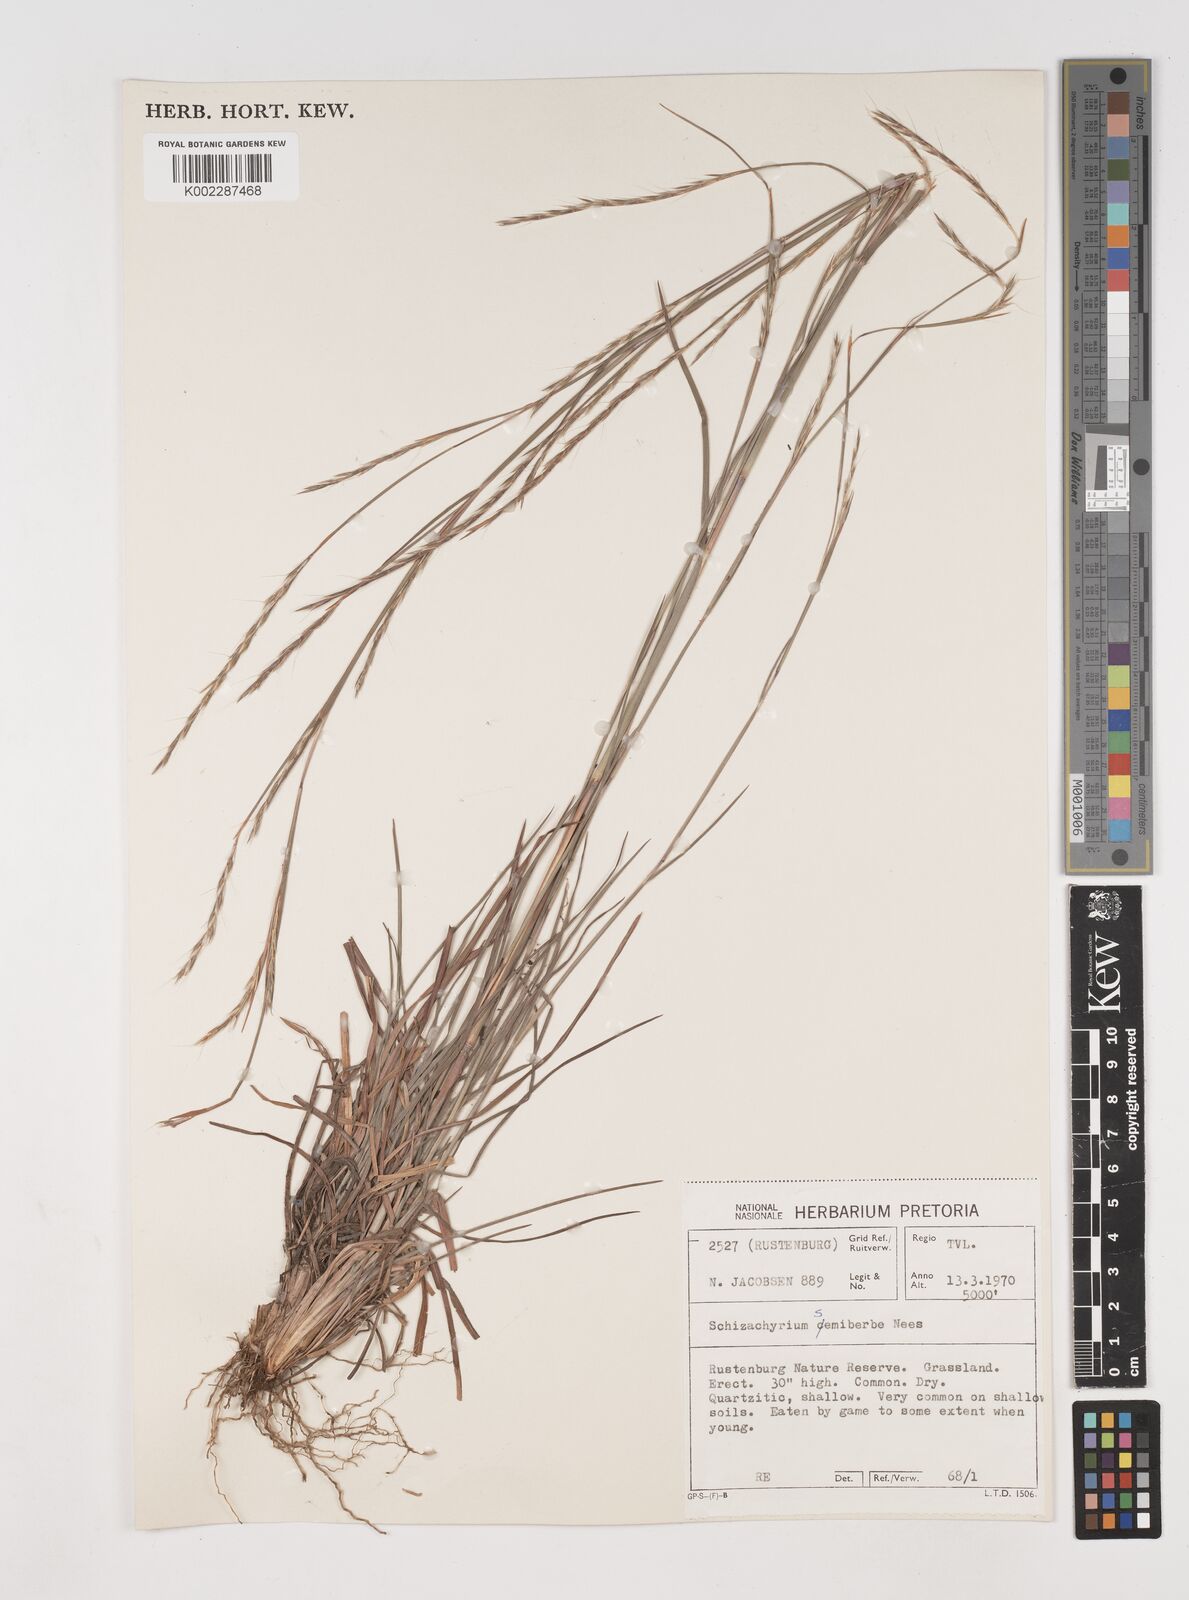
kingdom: Plantae
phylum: Tracheophyta
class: Liliopsida
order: Poales
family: Poaceae
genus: Schizachyrium
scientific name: Schizachyrium sanguineum
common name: Crimson bluestem
